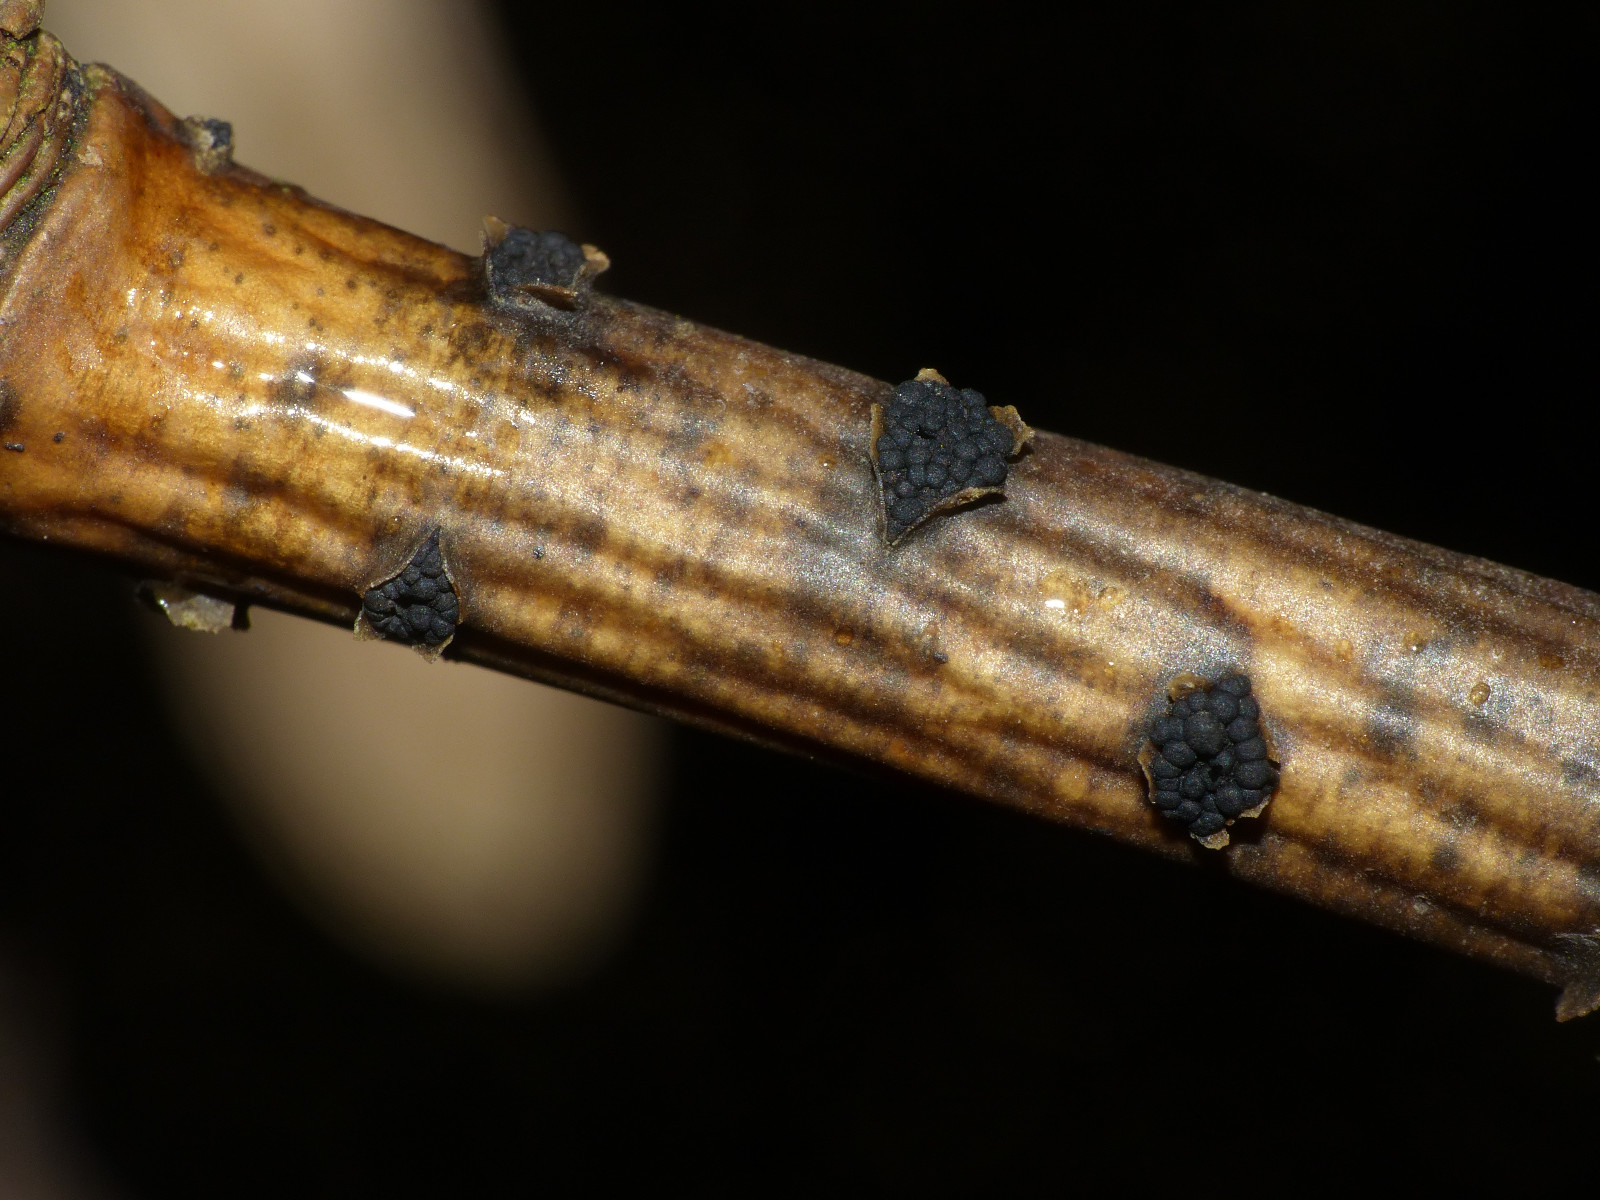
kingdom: Fungi
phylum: Ascomycota
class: Dothideomycetes
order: Pleosporales
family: Camarosporidiellaceae
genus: Camarosporidiella
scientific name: Camarosporidiella laburni
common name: guldregn-tykbær
